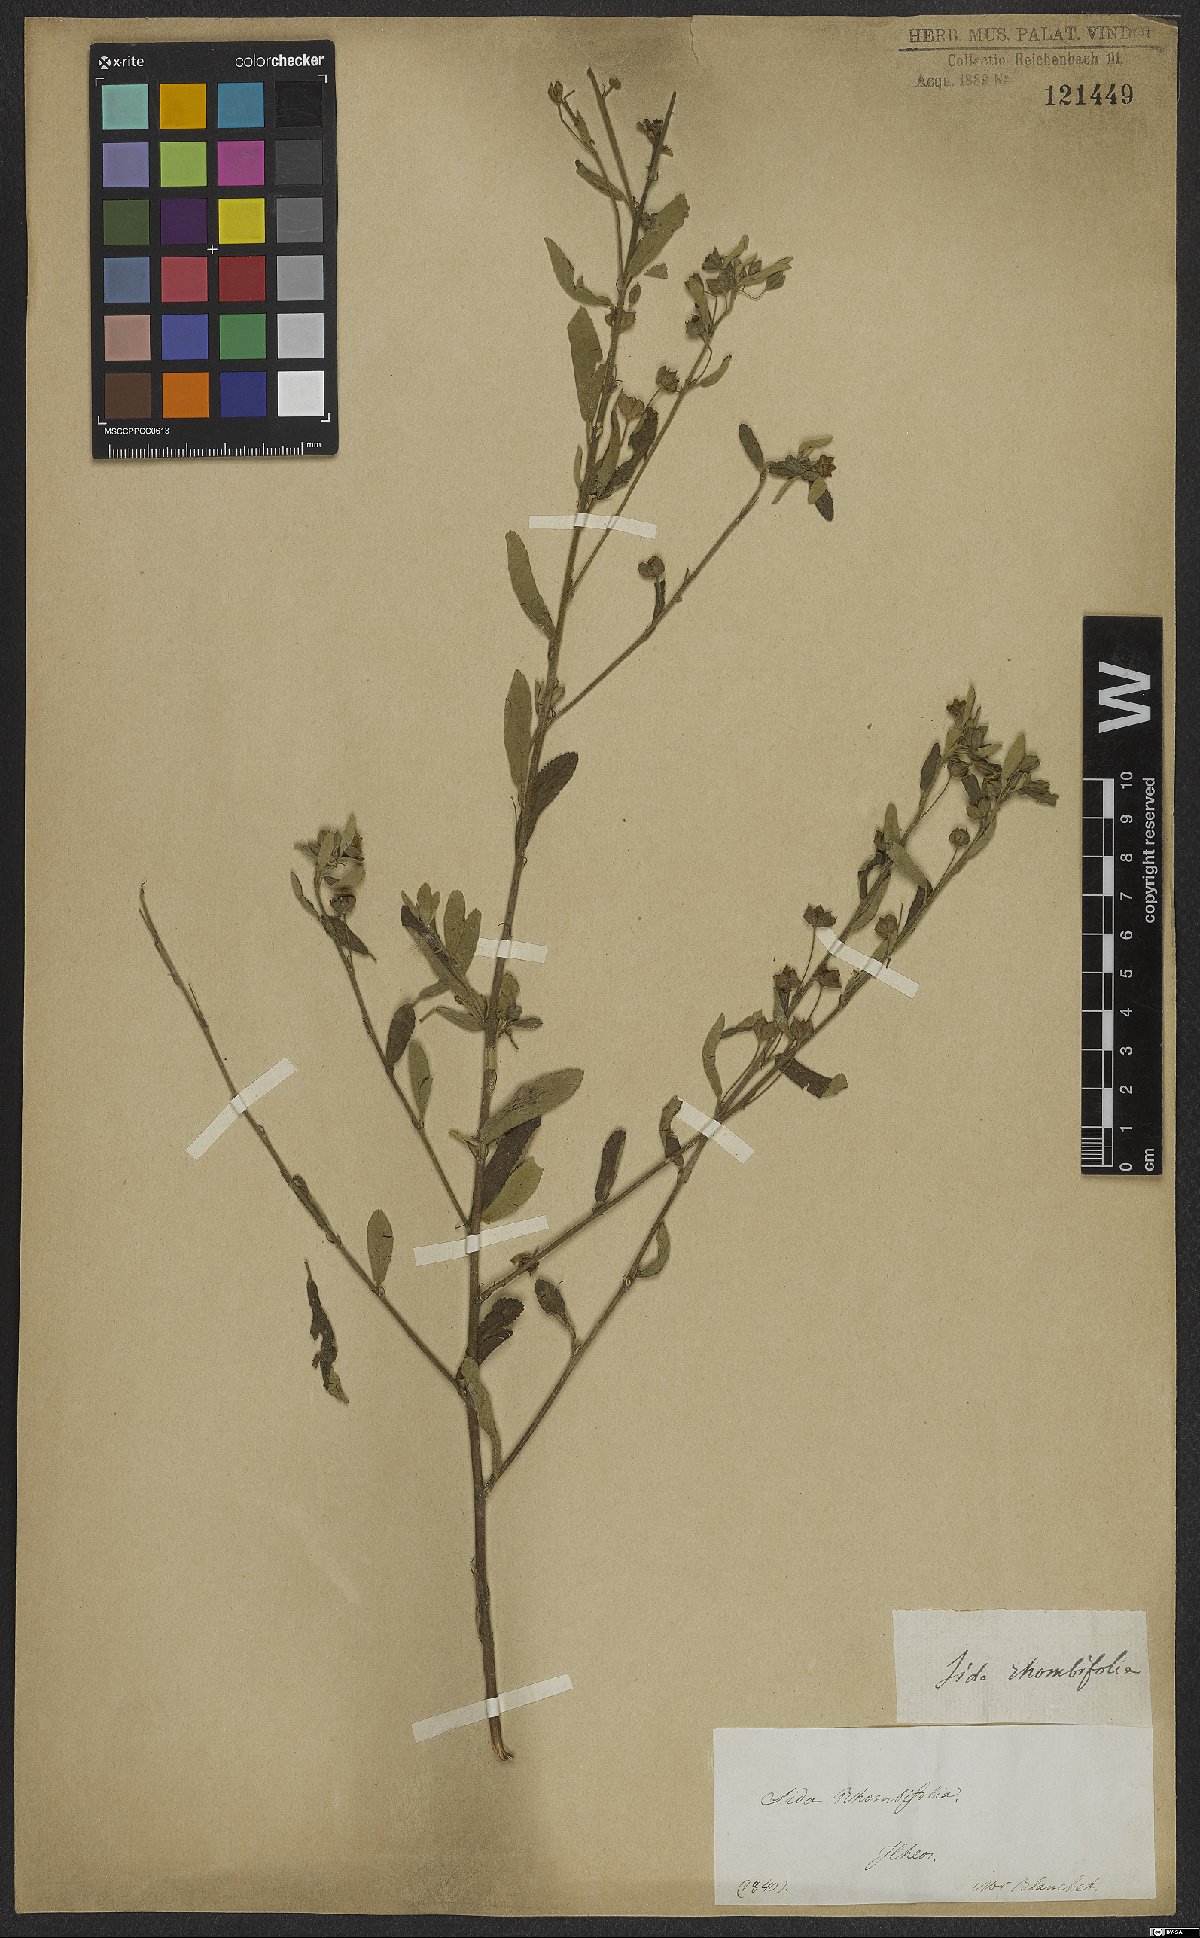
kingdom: Plantae
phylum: Tracheophyta
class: Magnoliopsida
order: Malvales
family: Malvaceae
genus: Sida
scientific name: Sida rhombifolia
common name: Queensland-hemp
